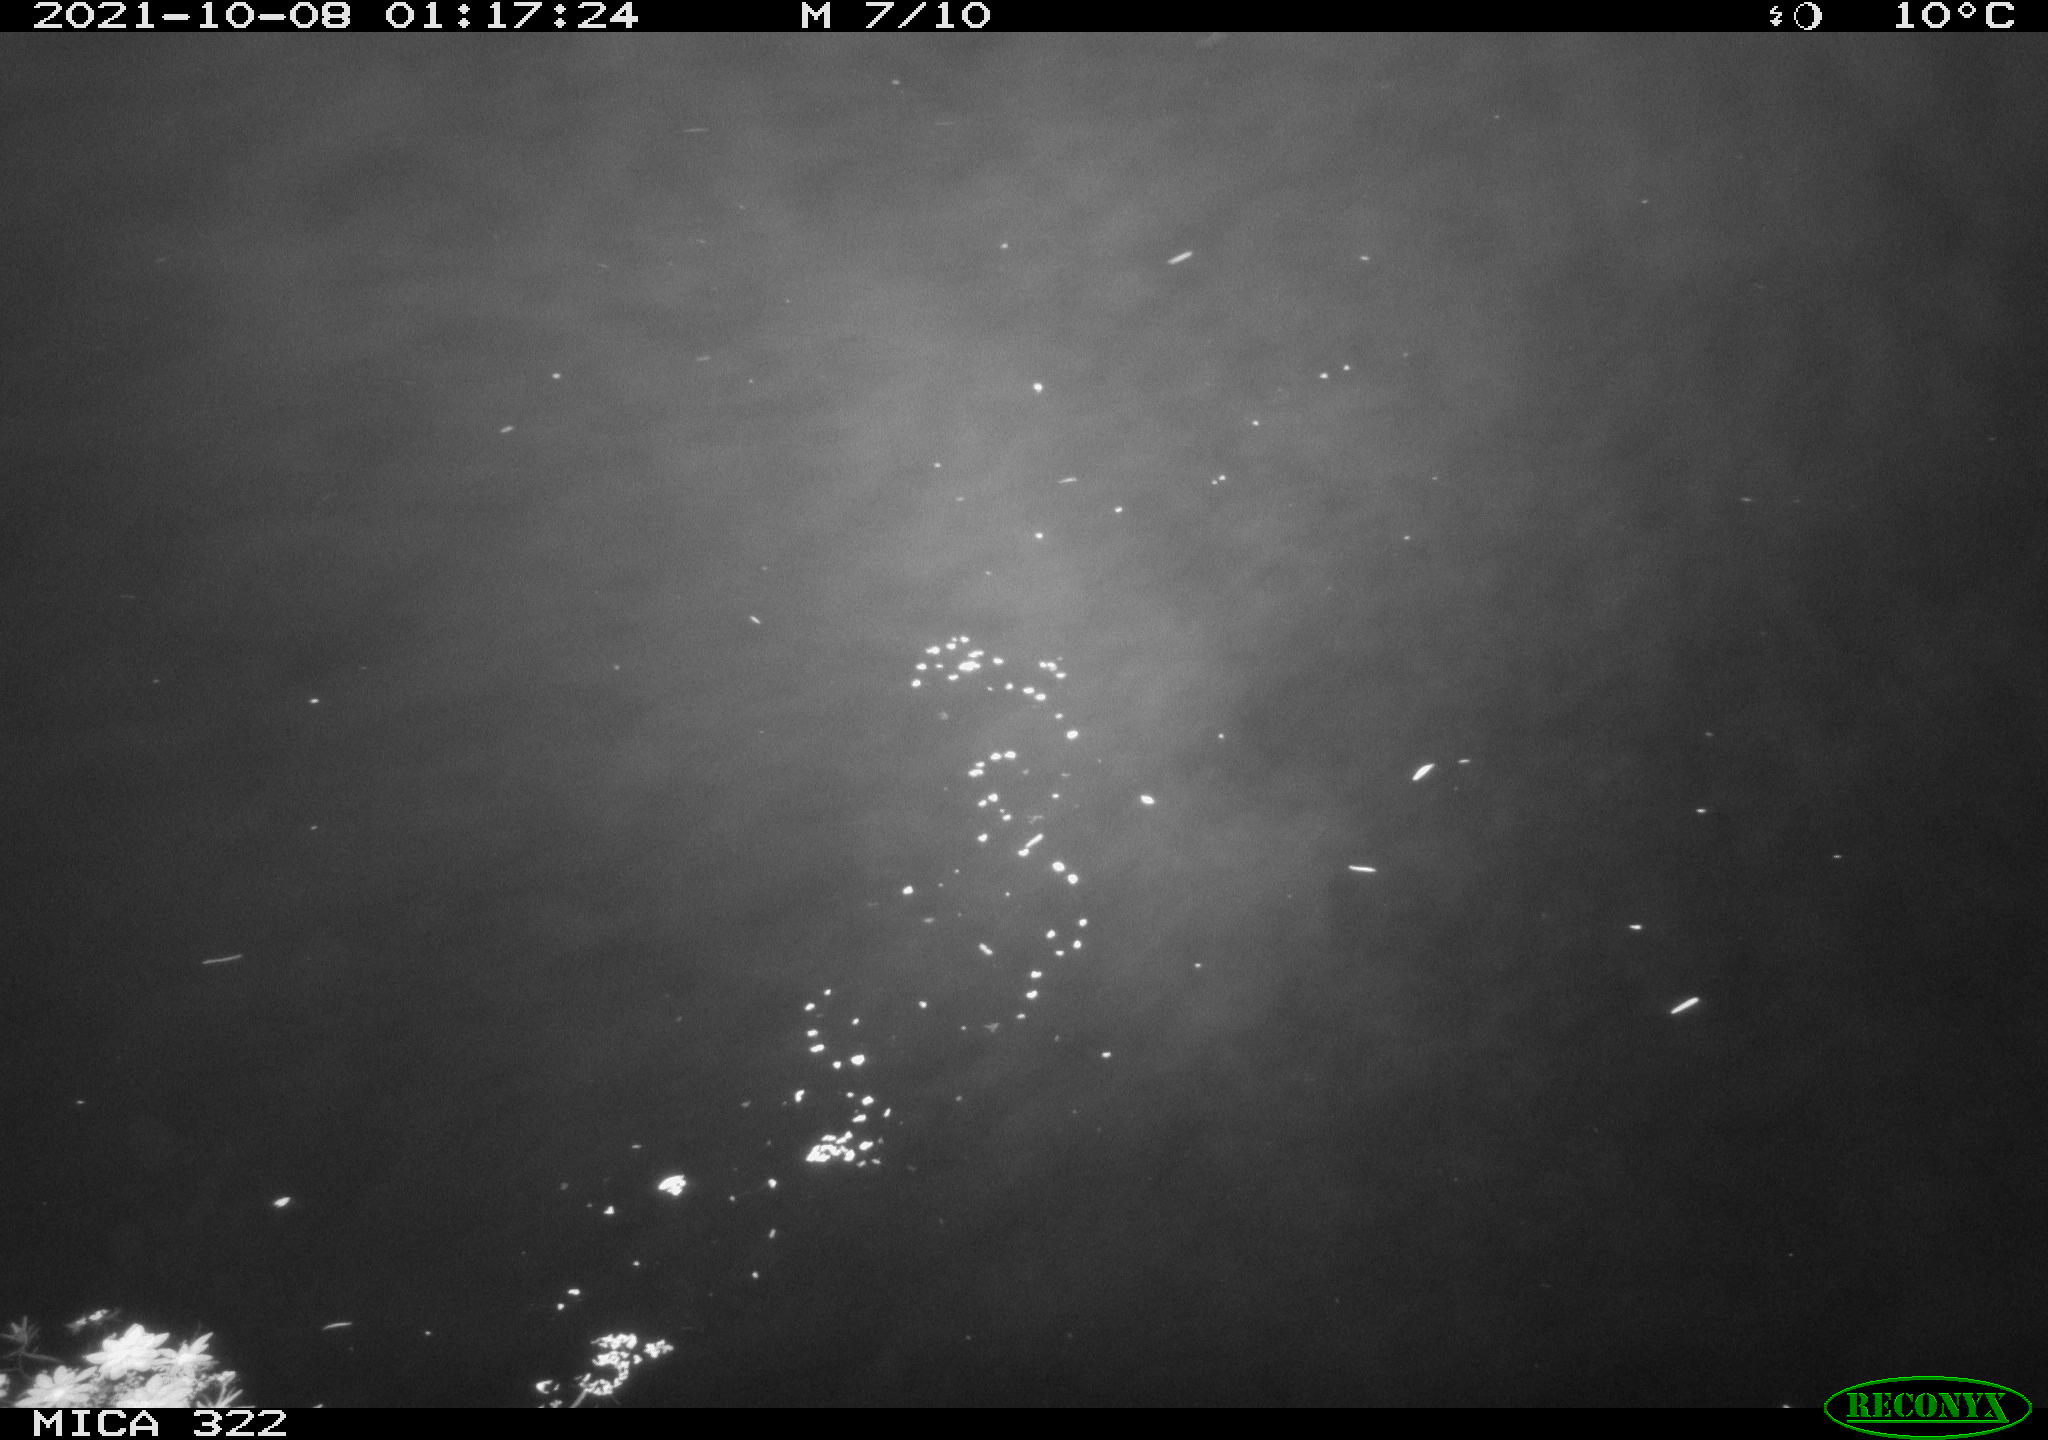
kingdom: Animalia
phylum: Chordata
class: Mammalia
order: Rodentia
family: Muridae
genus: Rattus
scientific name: Rattus norvegicus
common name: Brown rat
